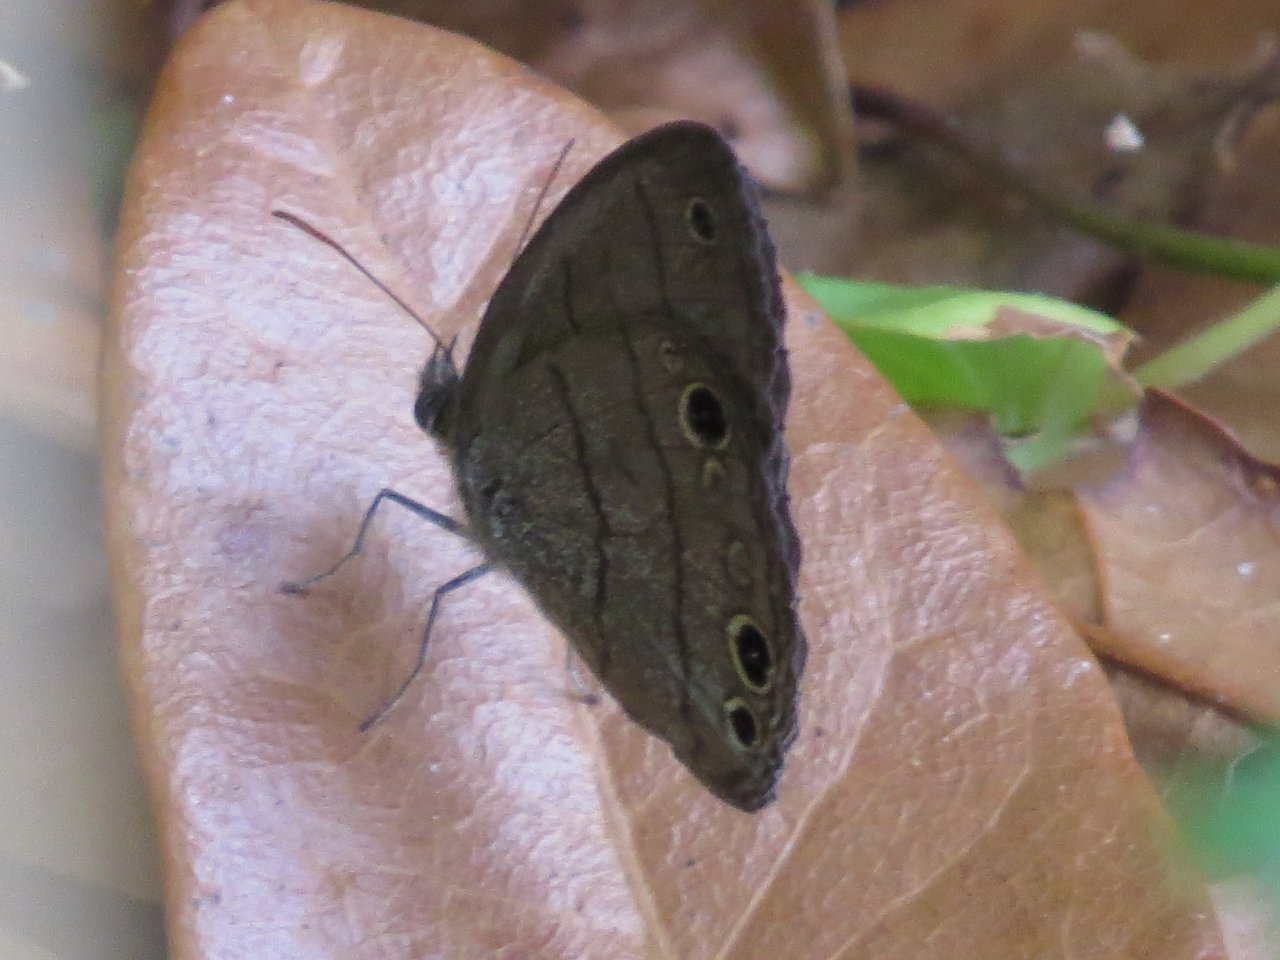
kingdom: Animalia
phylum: Arthropoda
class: Insecta
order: Lepidoptera
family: Nymphalidae
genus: Hermeuptychia
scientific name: Hermeuptychia hermes
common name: Carolina Satyr
